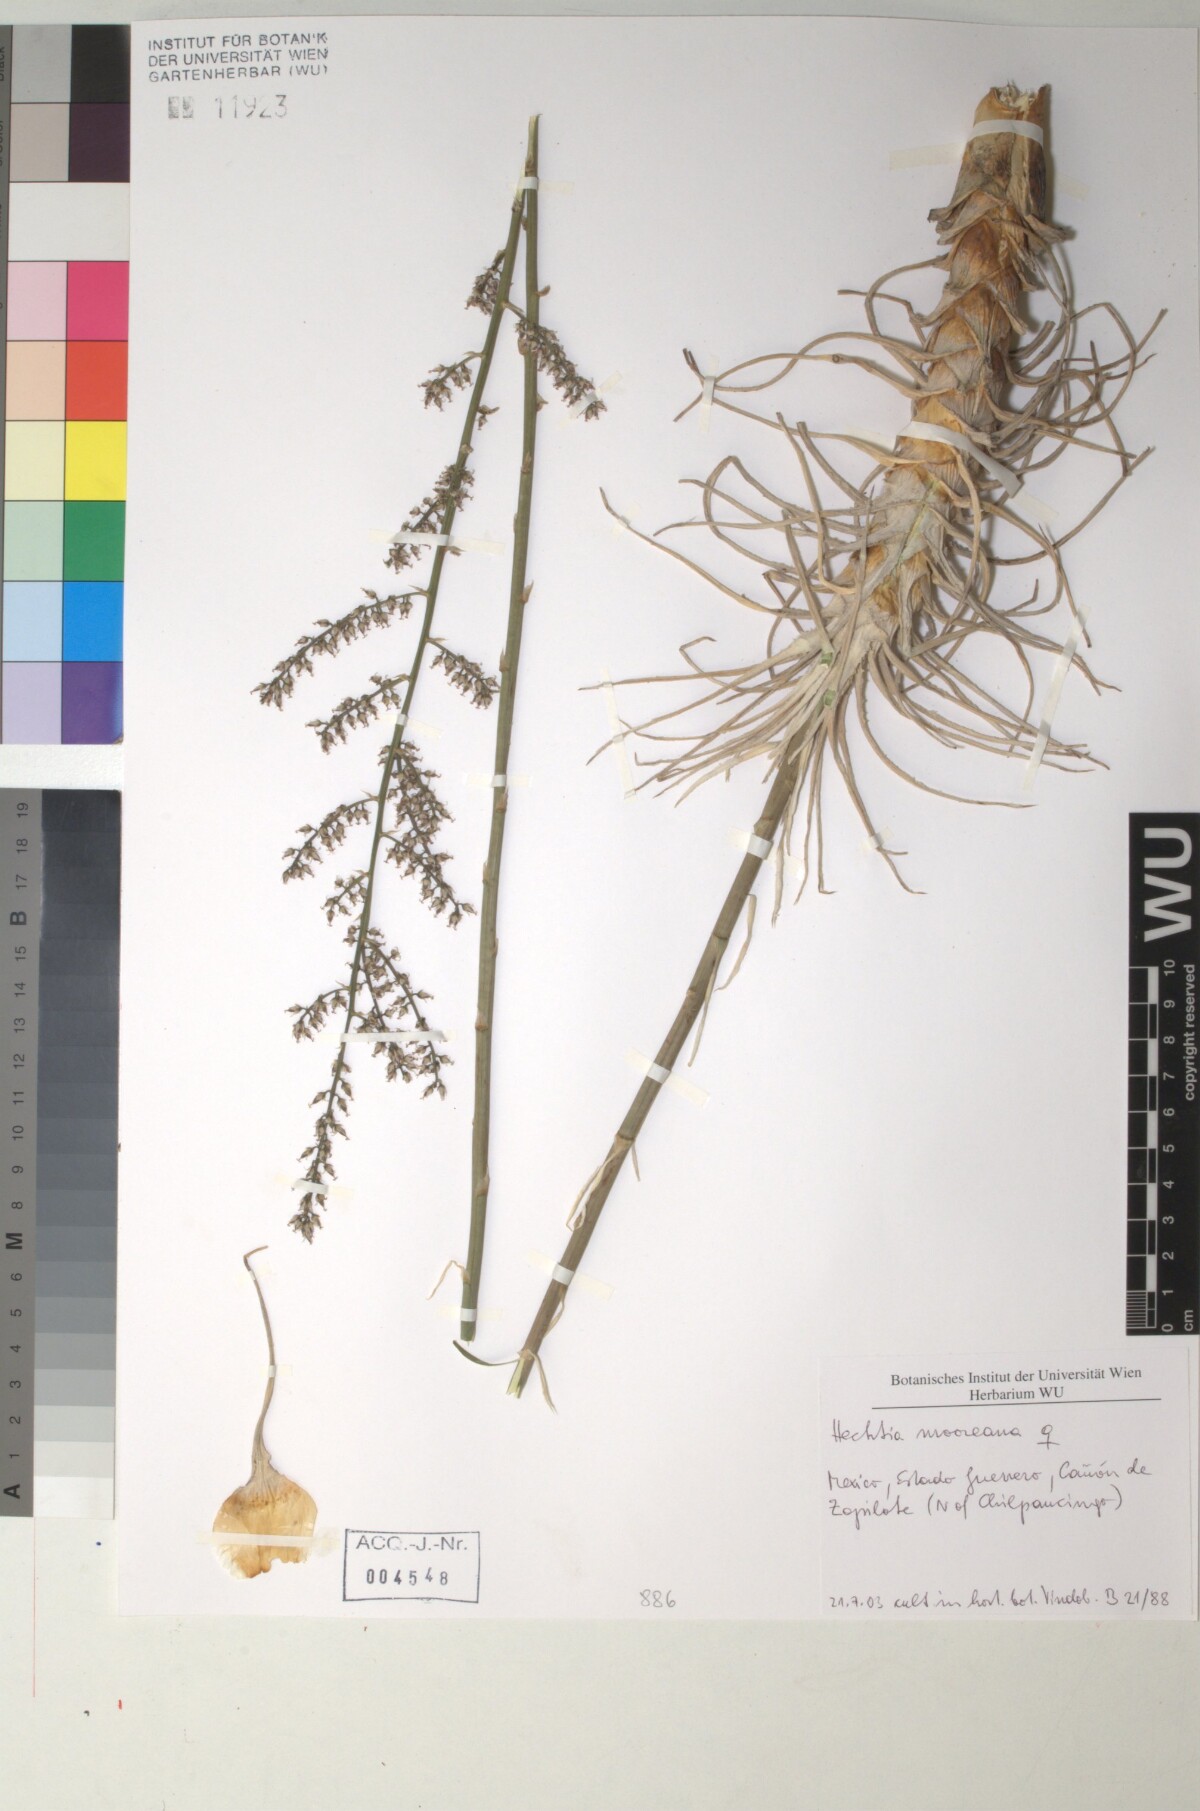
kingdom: Plantae
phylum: Tracheophyta
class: Liliopsida
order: Poales
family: Bromeliaceae
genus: Hechtia
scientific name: Hechtia
